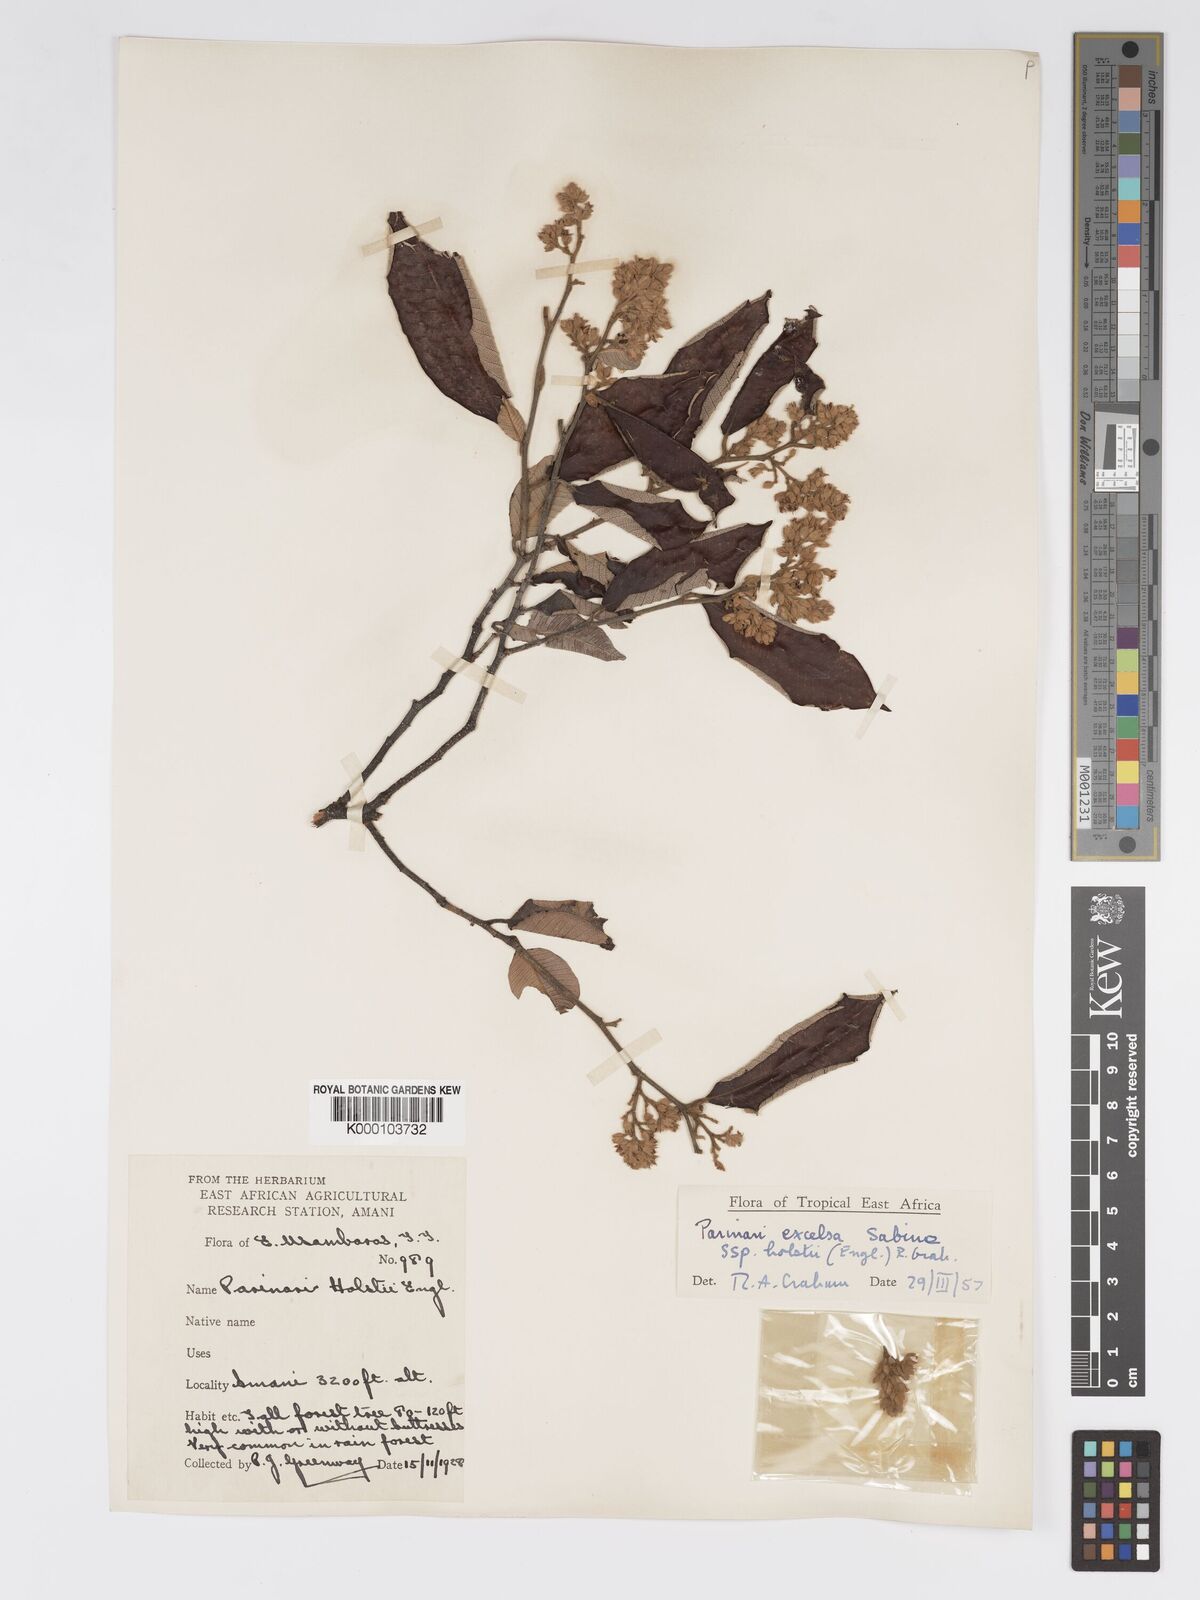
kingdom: Plantae
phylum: Tracheophyta
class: Magnoliopsida
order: Malpighiales
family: Chrysobalanaceae
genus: Parinari
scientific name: Parinari excelsa
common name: Guinea-plum
